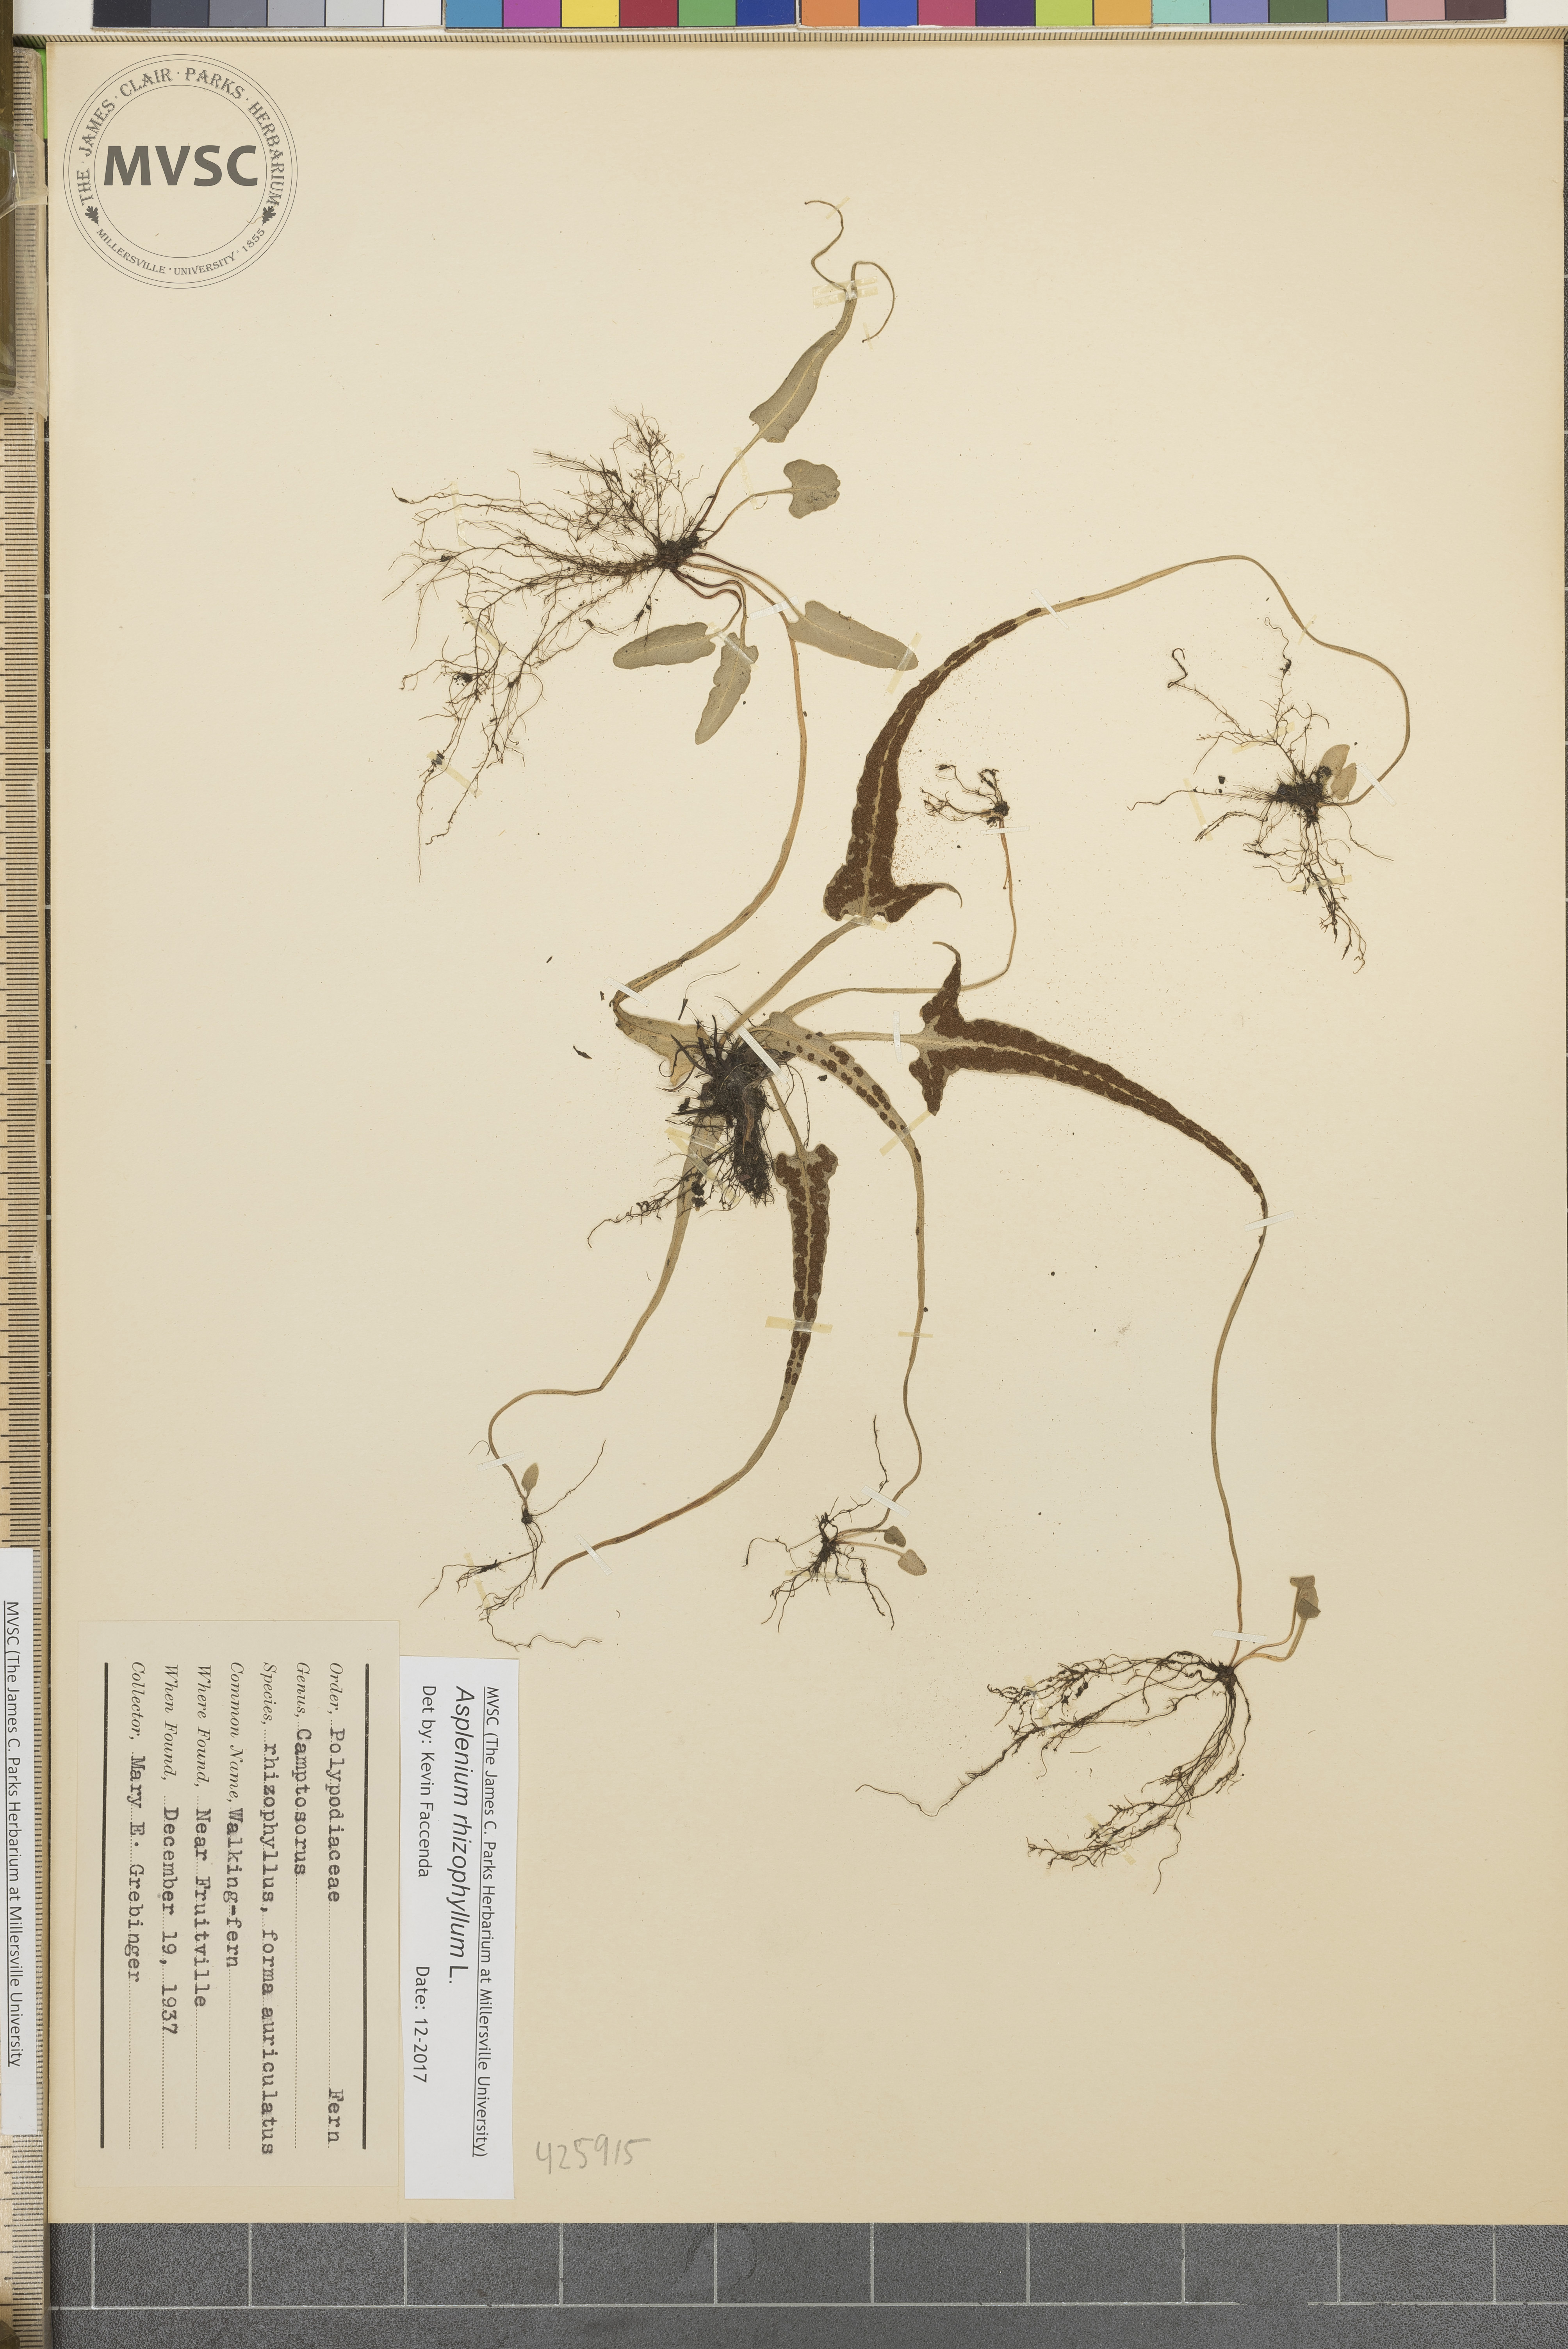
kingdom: Plantae
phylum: Tracheophyta
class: Polypodiopsida
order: Polypodiales
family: Aspleniaceae
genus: Asplenium
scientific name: Asplenium rhizophyllum
